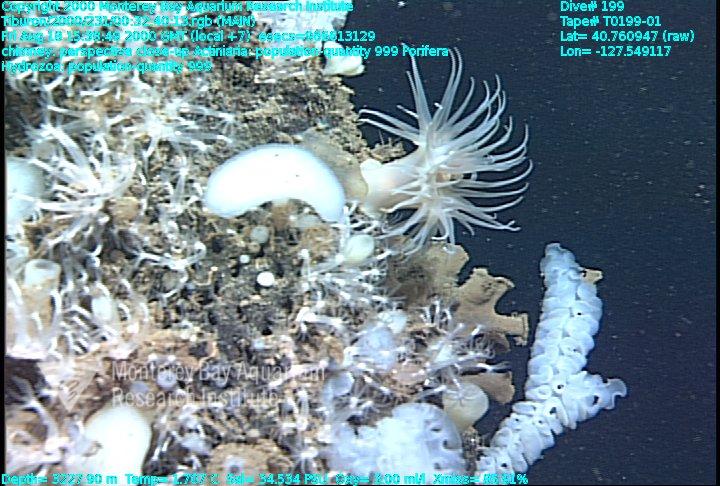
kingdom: Animalia
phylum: Porifera
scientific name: Porifera
